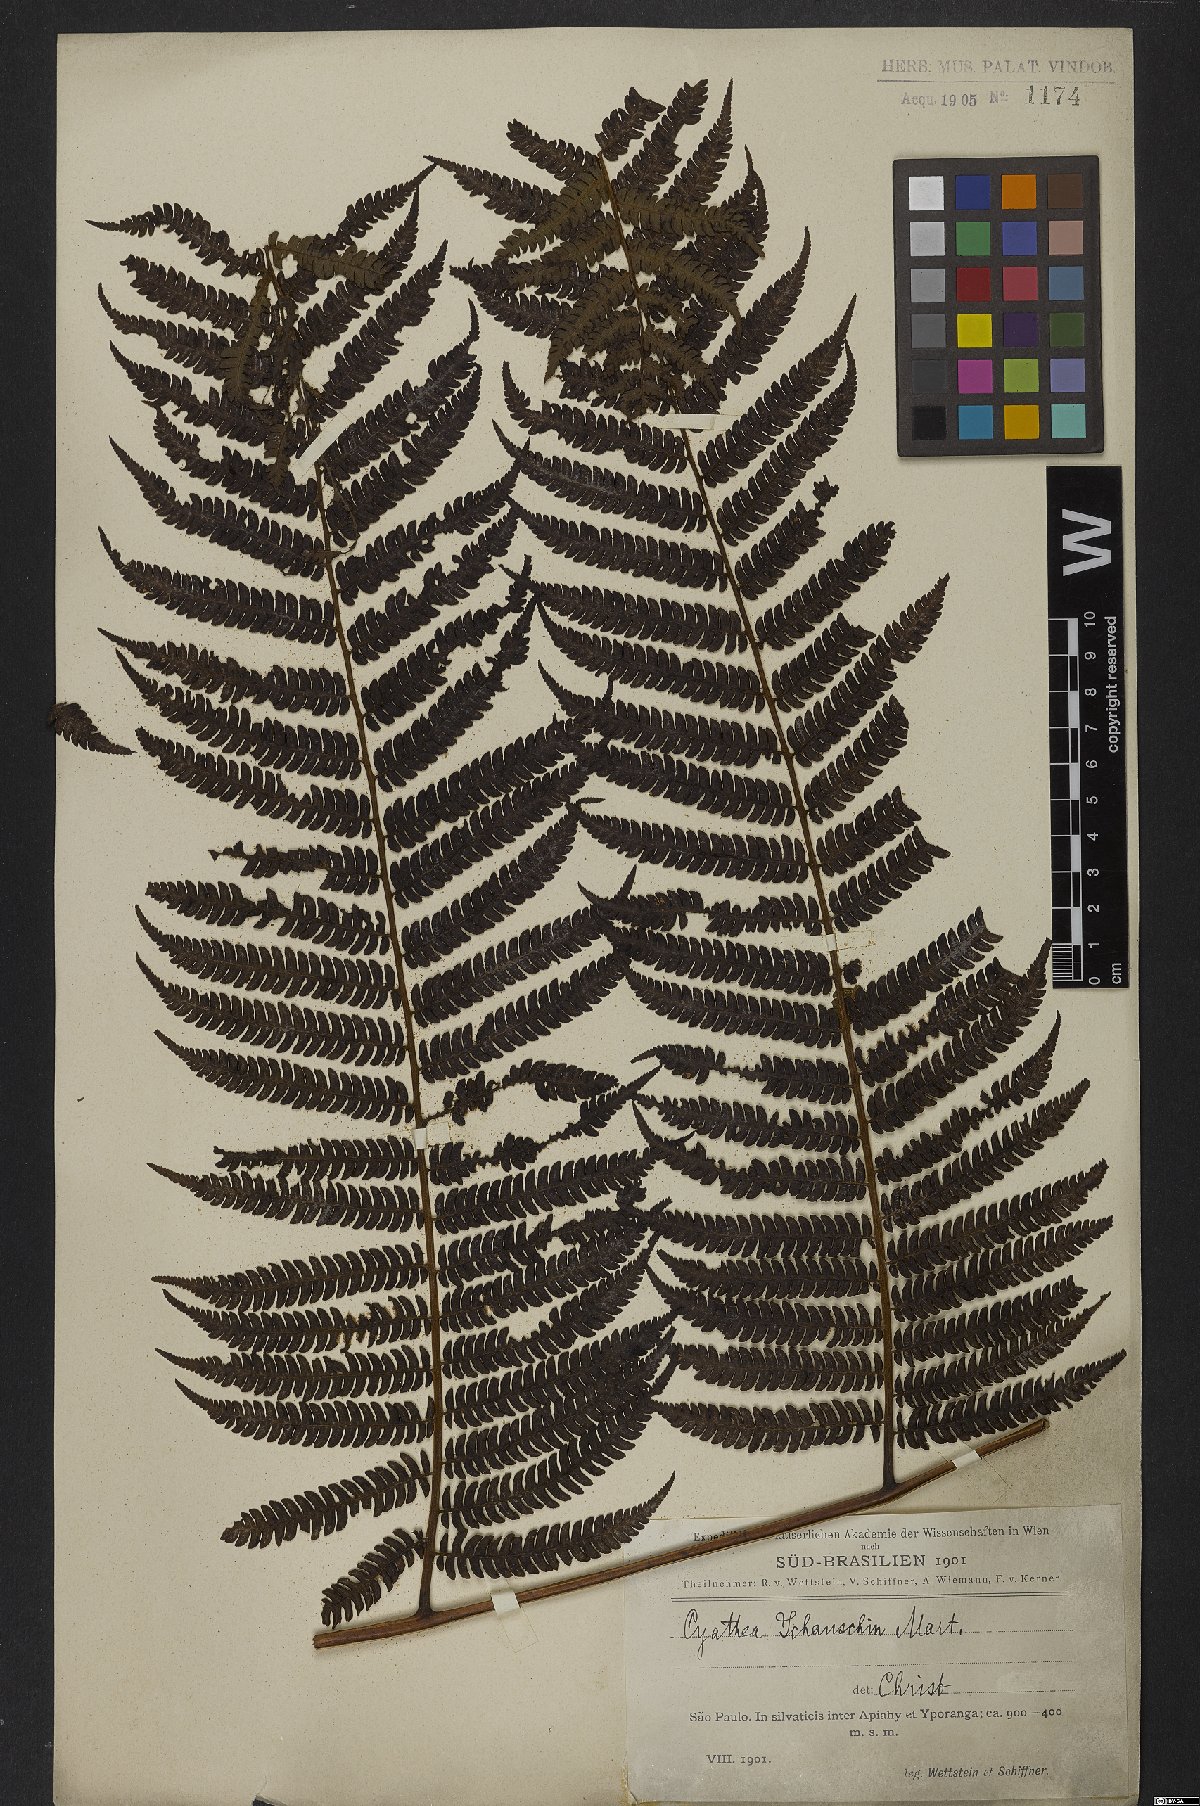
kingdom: Plantae
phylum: Tracheophyta
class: Polypodiopsida
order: Cyatheales
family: Cyatheaceae
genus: Cyathea
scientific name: Cyathea delgadii
